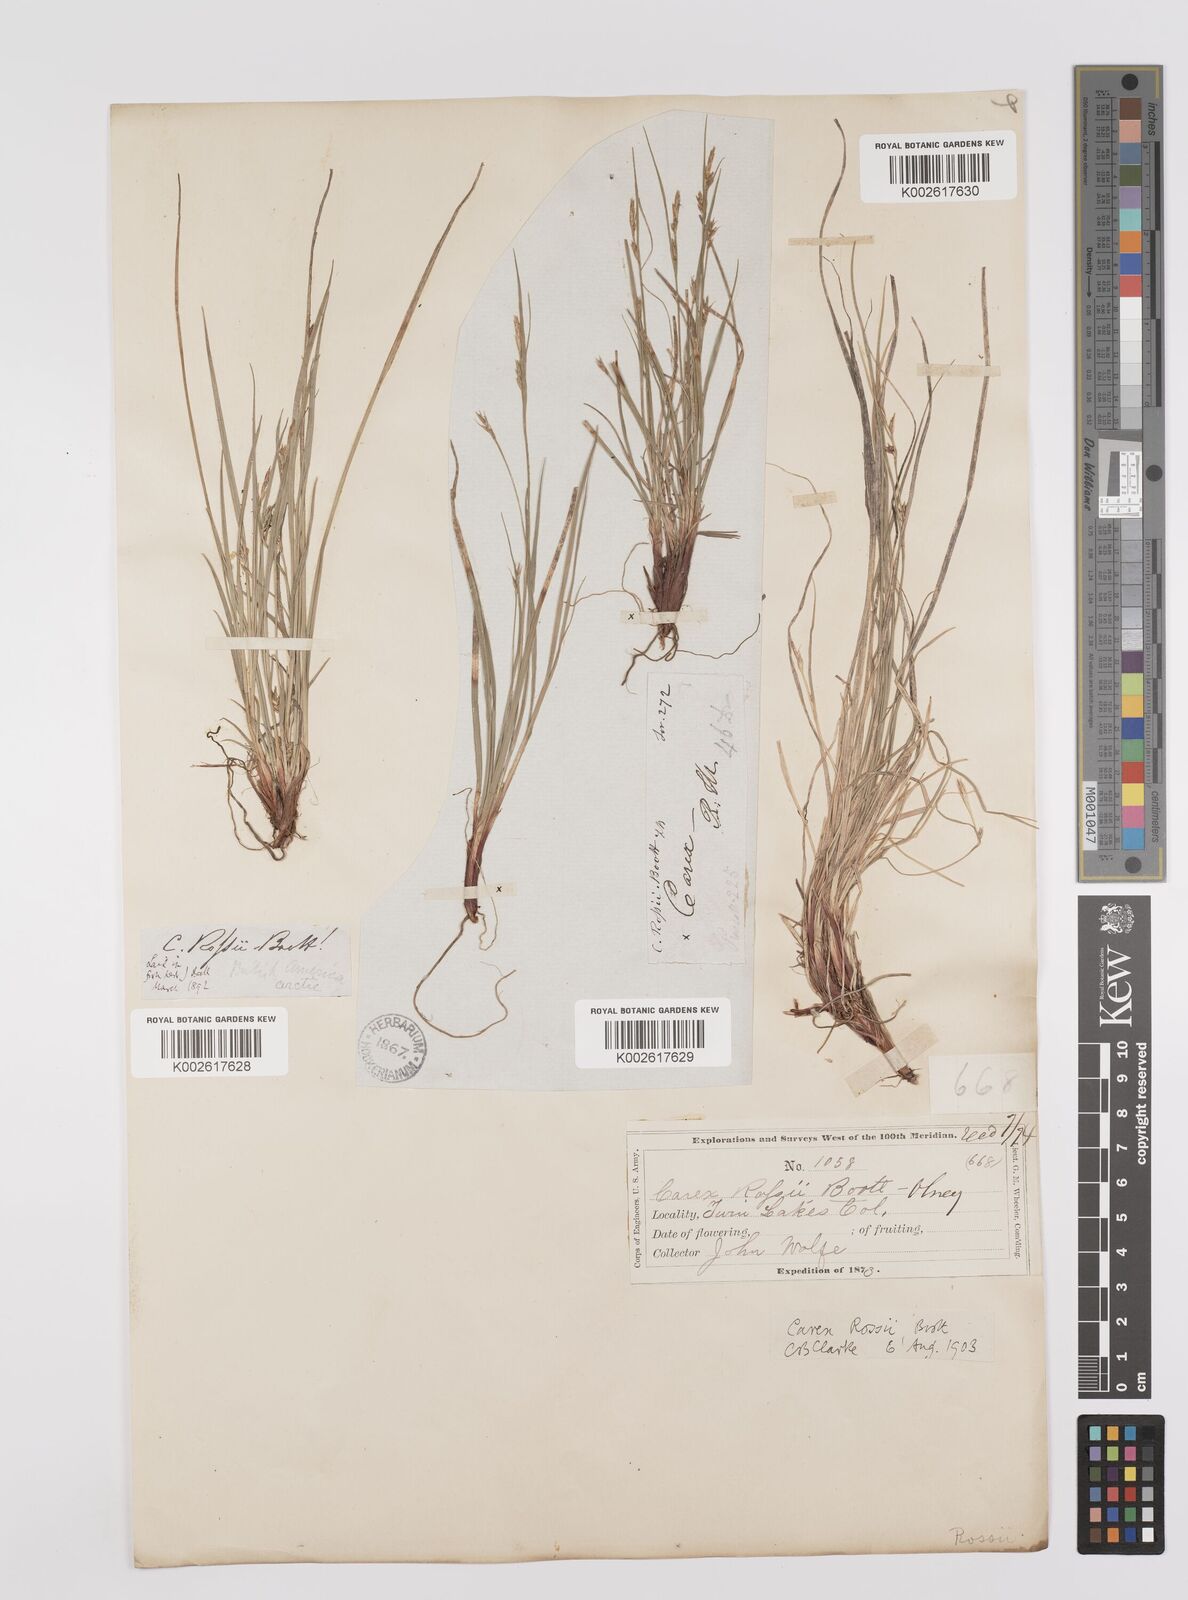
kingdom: Plantae
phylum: Tracheophyta
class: Liliopsida
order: Poales
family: Cyperaceae
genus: Carex
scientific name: Carex rossii
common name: Ross' sedge
